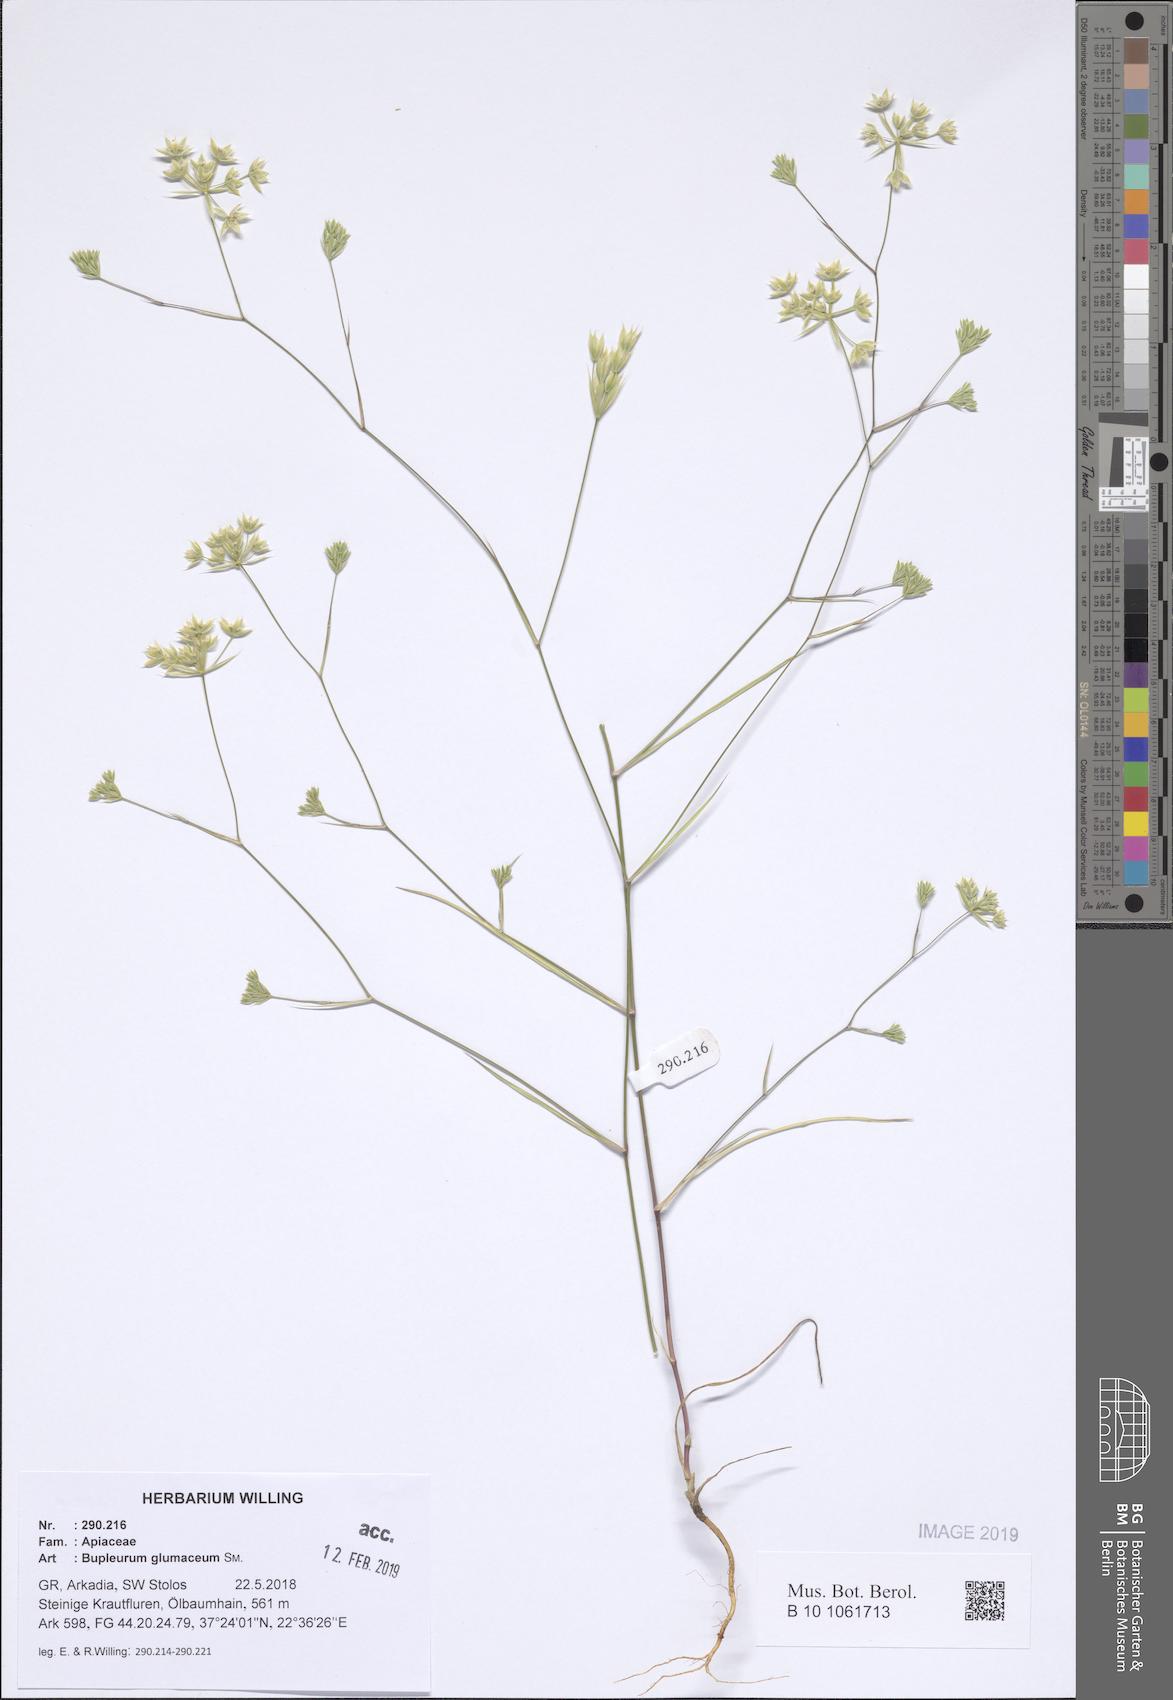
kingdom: Plantae
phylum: Tracheophyta
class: Magnoliopsida
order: Apiales
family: Apiaceae
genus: Bupleurum
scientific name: Bupleurum glumaceum
